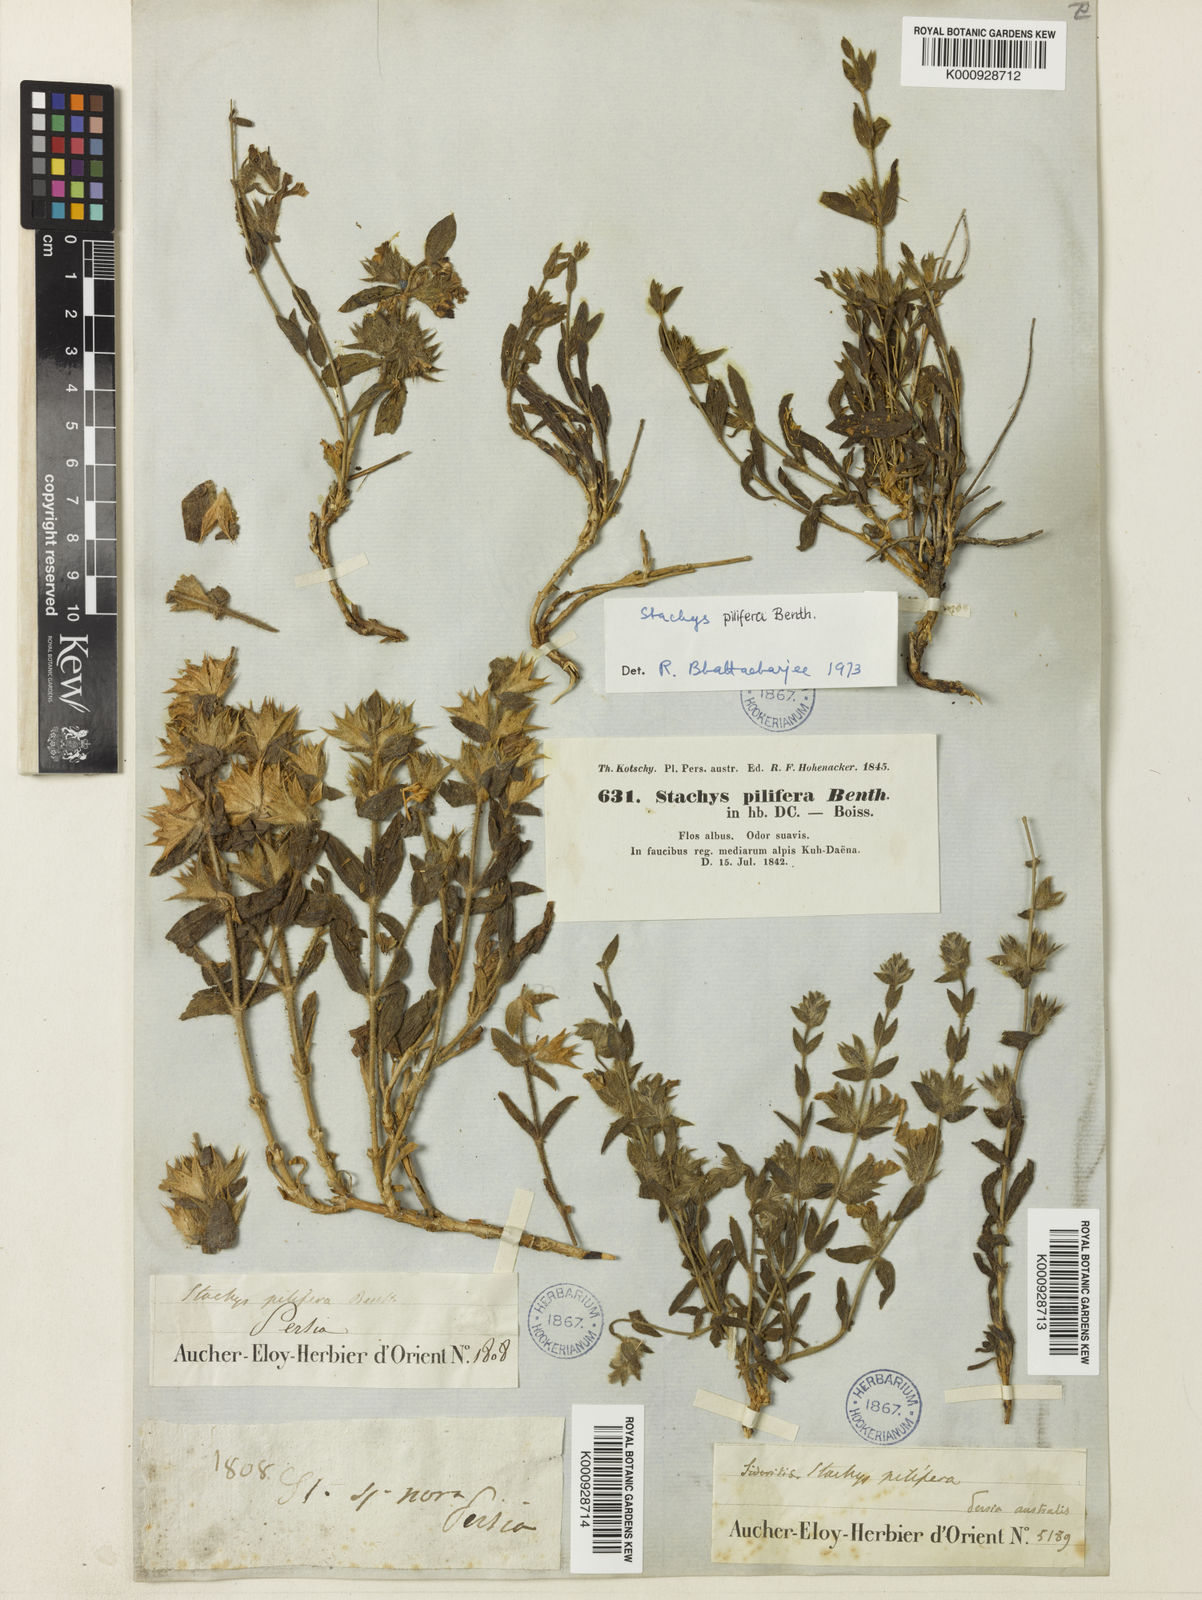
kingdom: Plantae
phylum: Tracheophyta
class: Magnoliopsida
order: Lamiales
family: Lamiaceae
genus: Stachys
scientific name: Stachys pilifera
